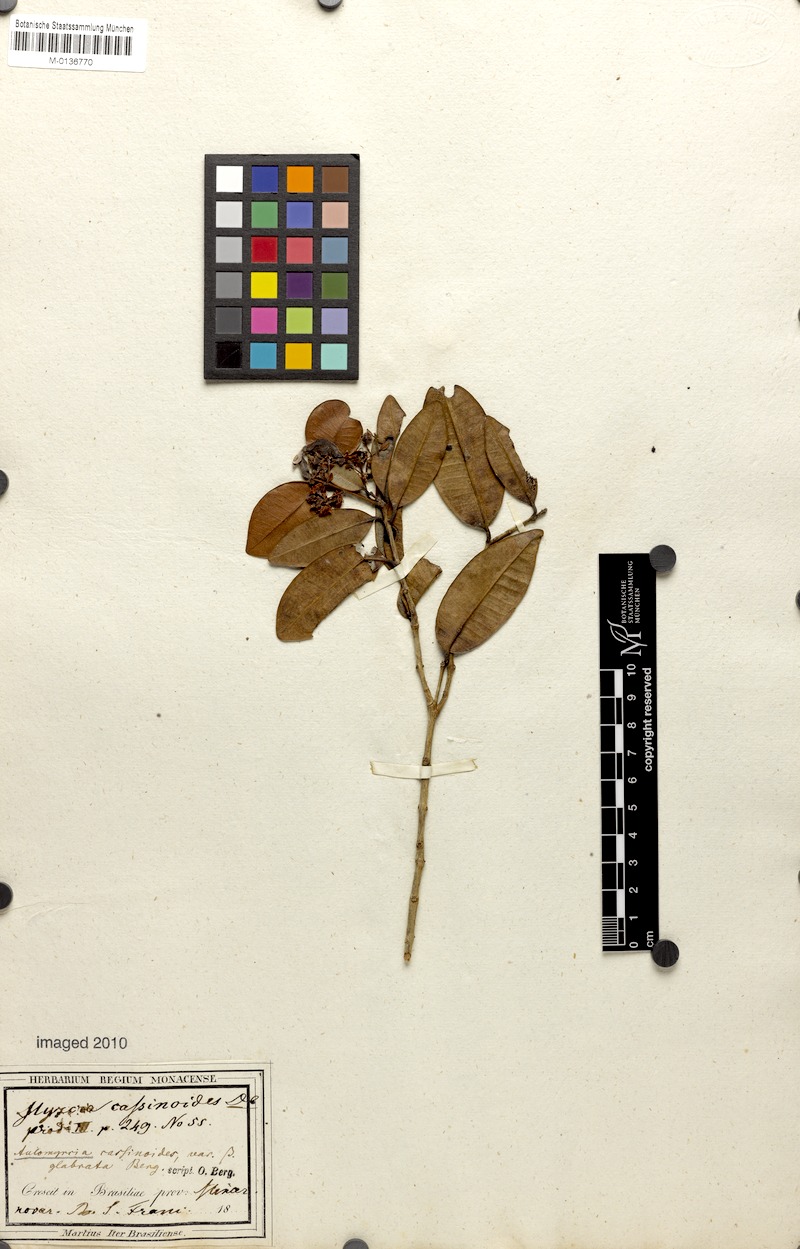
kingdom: Plantae
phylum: Tracheophyta
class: Magnoliopsida
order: Myrtales
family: Myrtaceae
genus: Myrcia
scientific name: Myrcia guianensis
